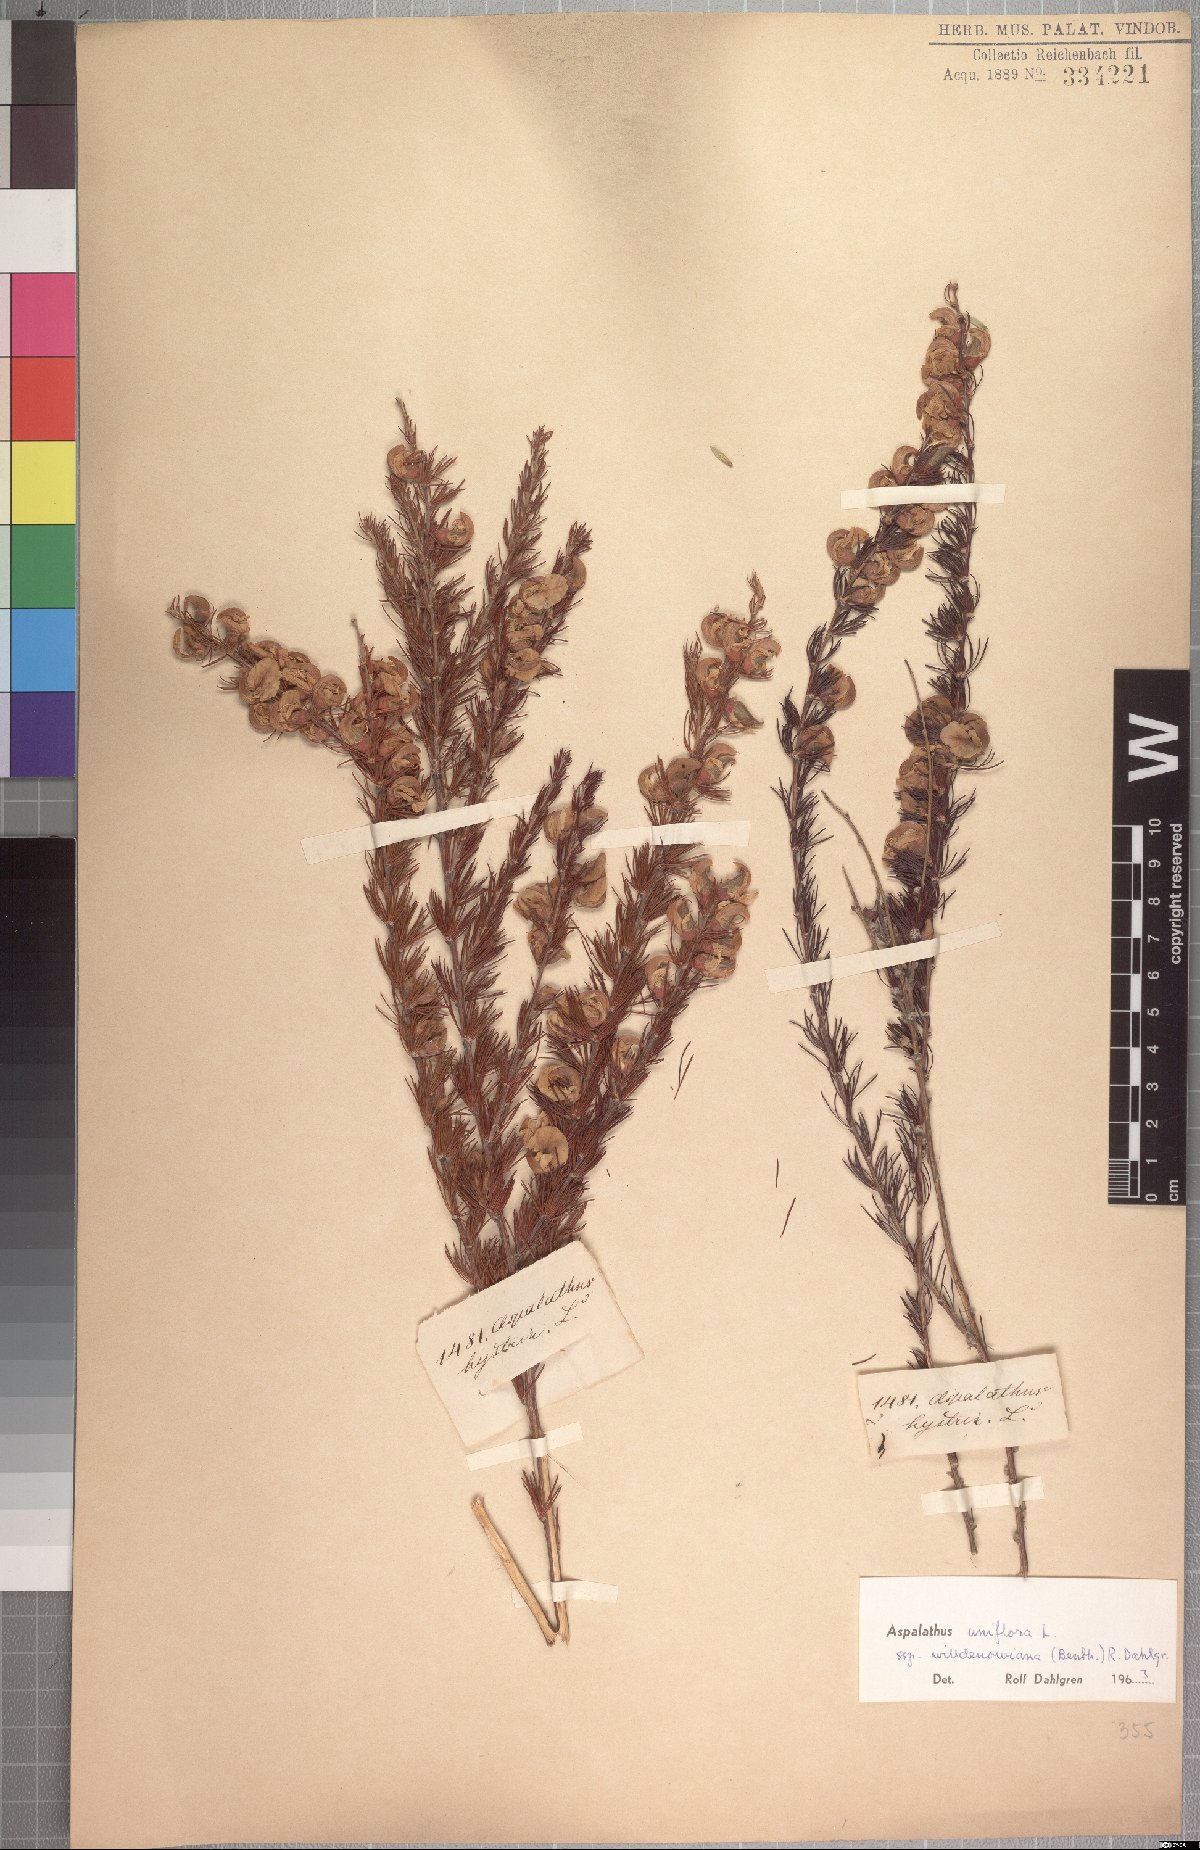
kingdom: Plantae
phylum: Tracheophyta
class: Magnoliopsida
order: Fabales
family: Fabaceae
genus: Aspalathus
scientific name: Aspalathus willdenowiana
